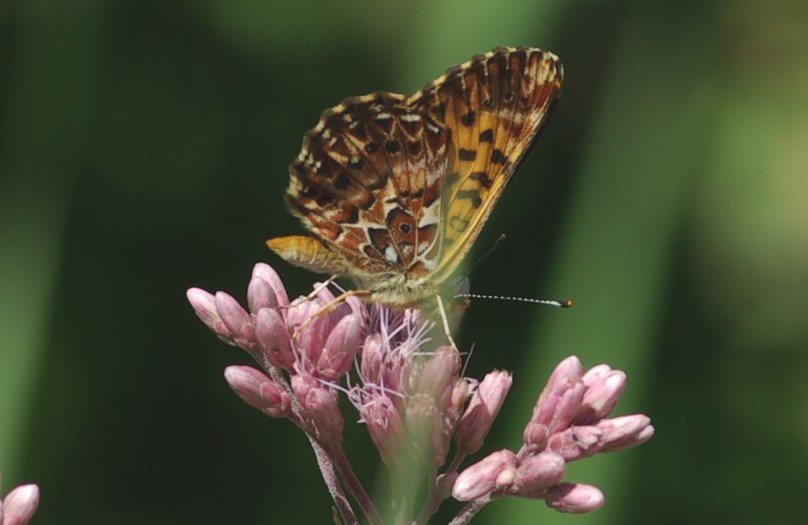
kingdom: Animalia
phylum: Arthropoda
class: Insecta
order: Lepidoptera
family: Nymphalidae
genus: Boloria
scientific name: Boloria chariclea
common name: Arctic Fritillary
